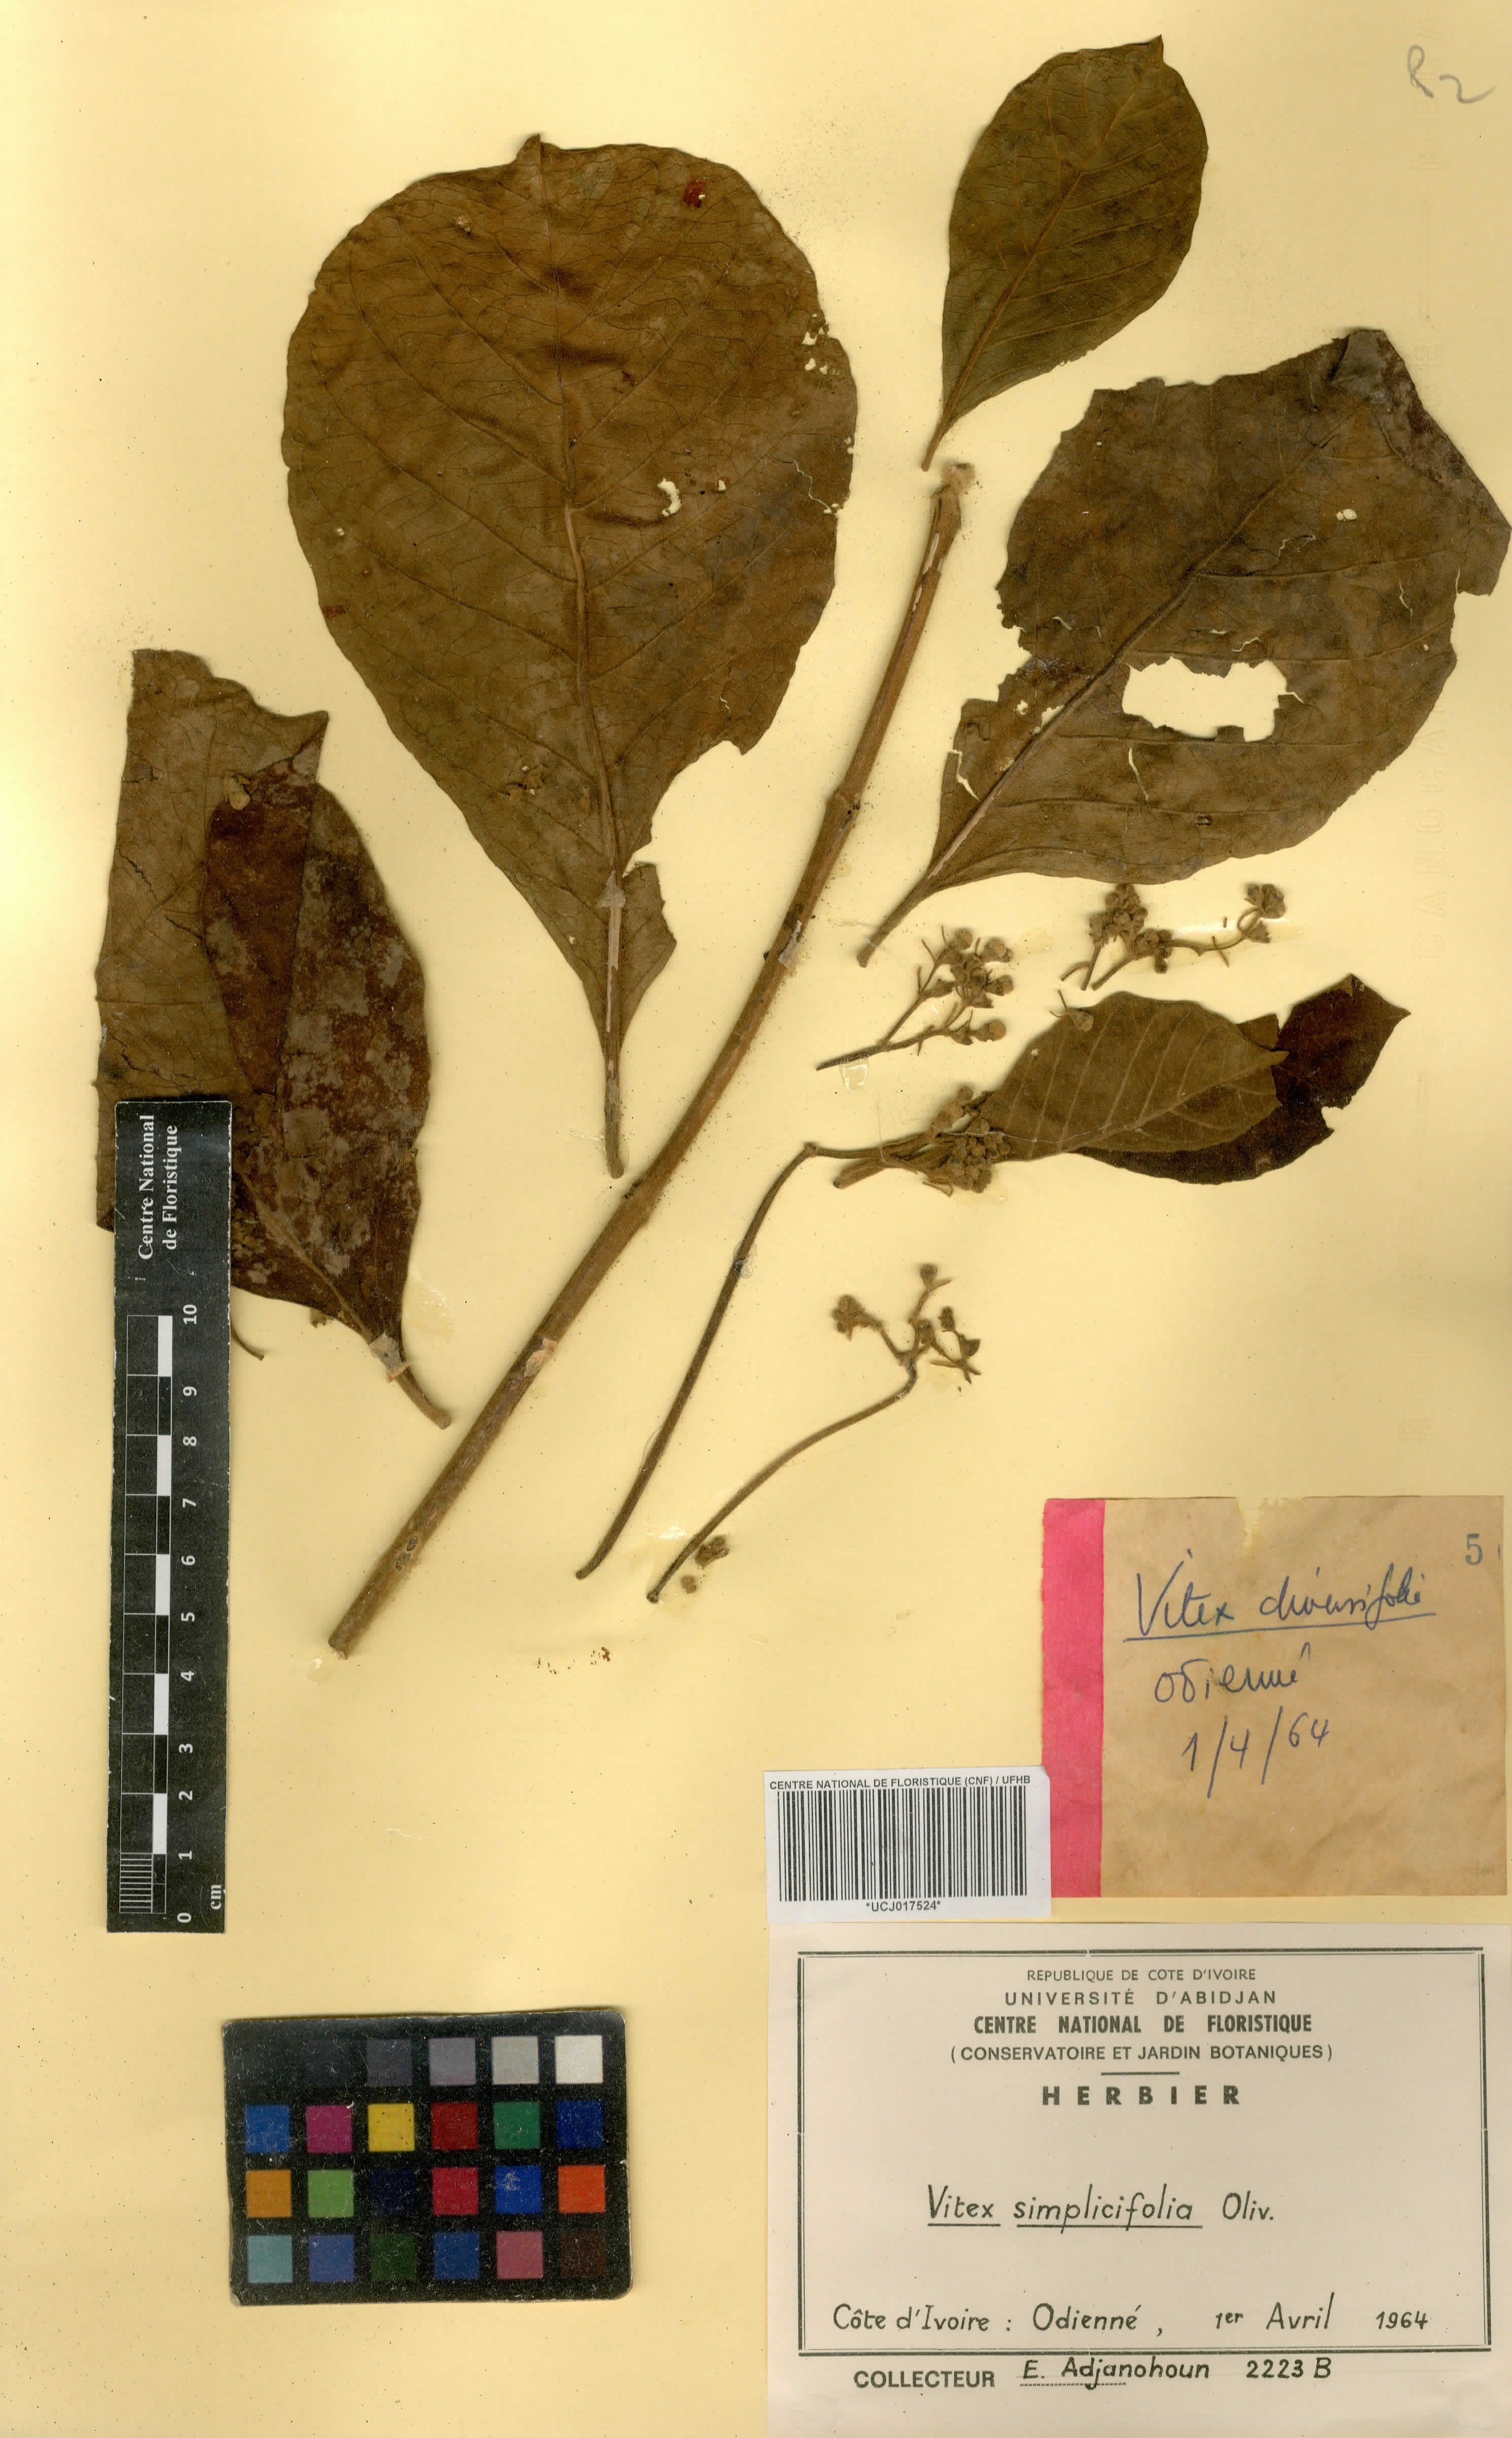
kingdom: Plantae
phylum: Tracheophyta
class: Magnoliopsida
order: Lamiales
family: Lamiaceae
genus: Vitex
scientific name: Vitex madiensis
